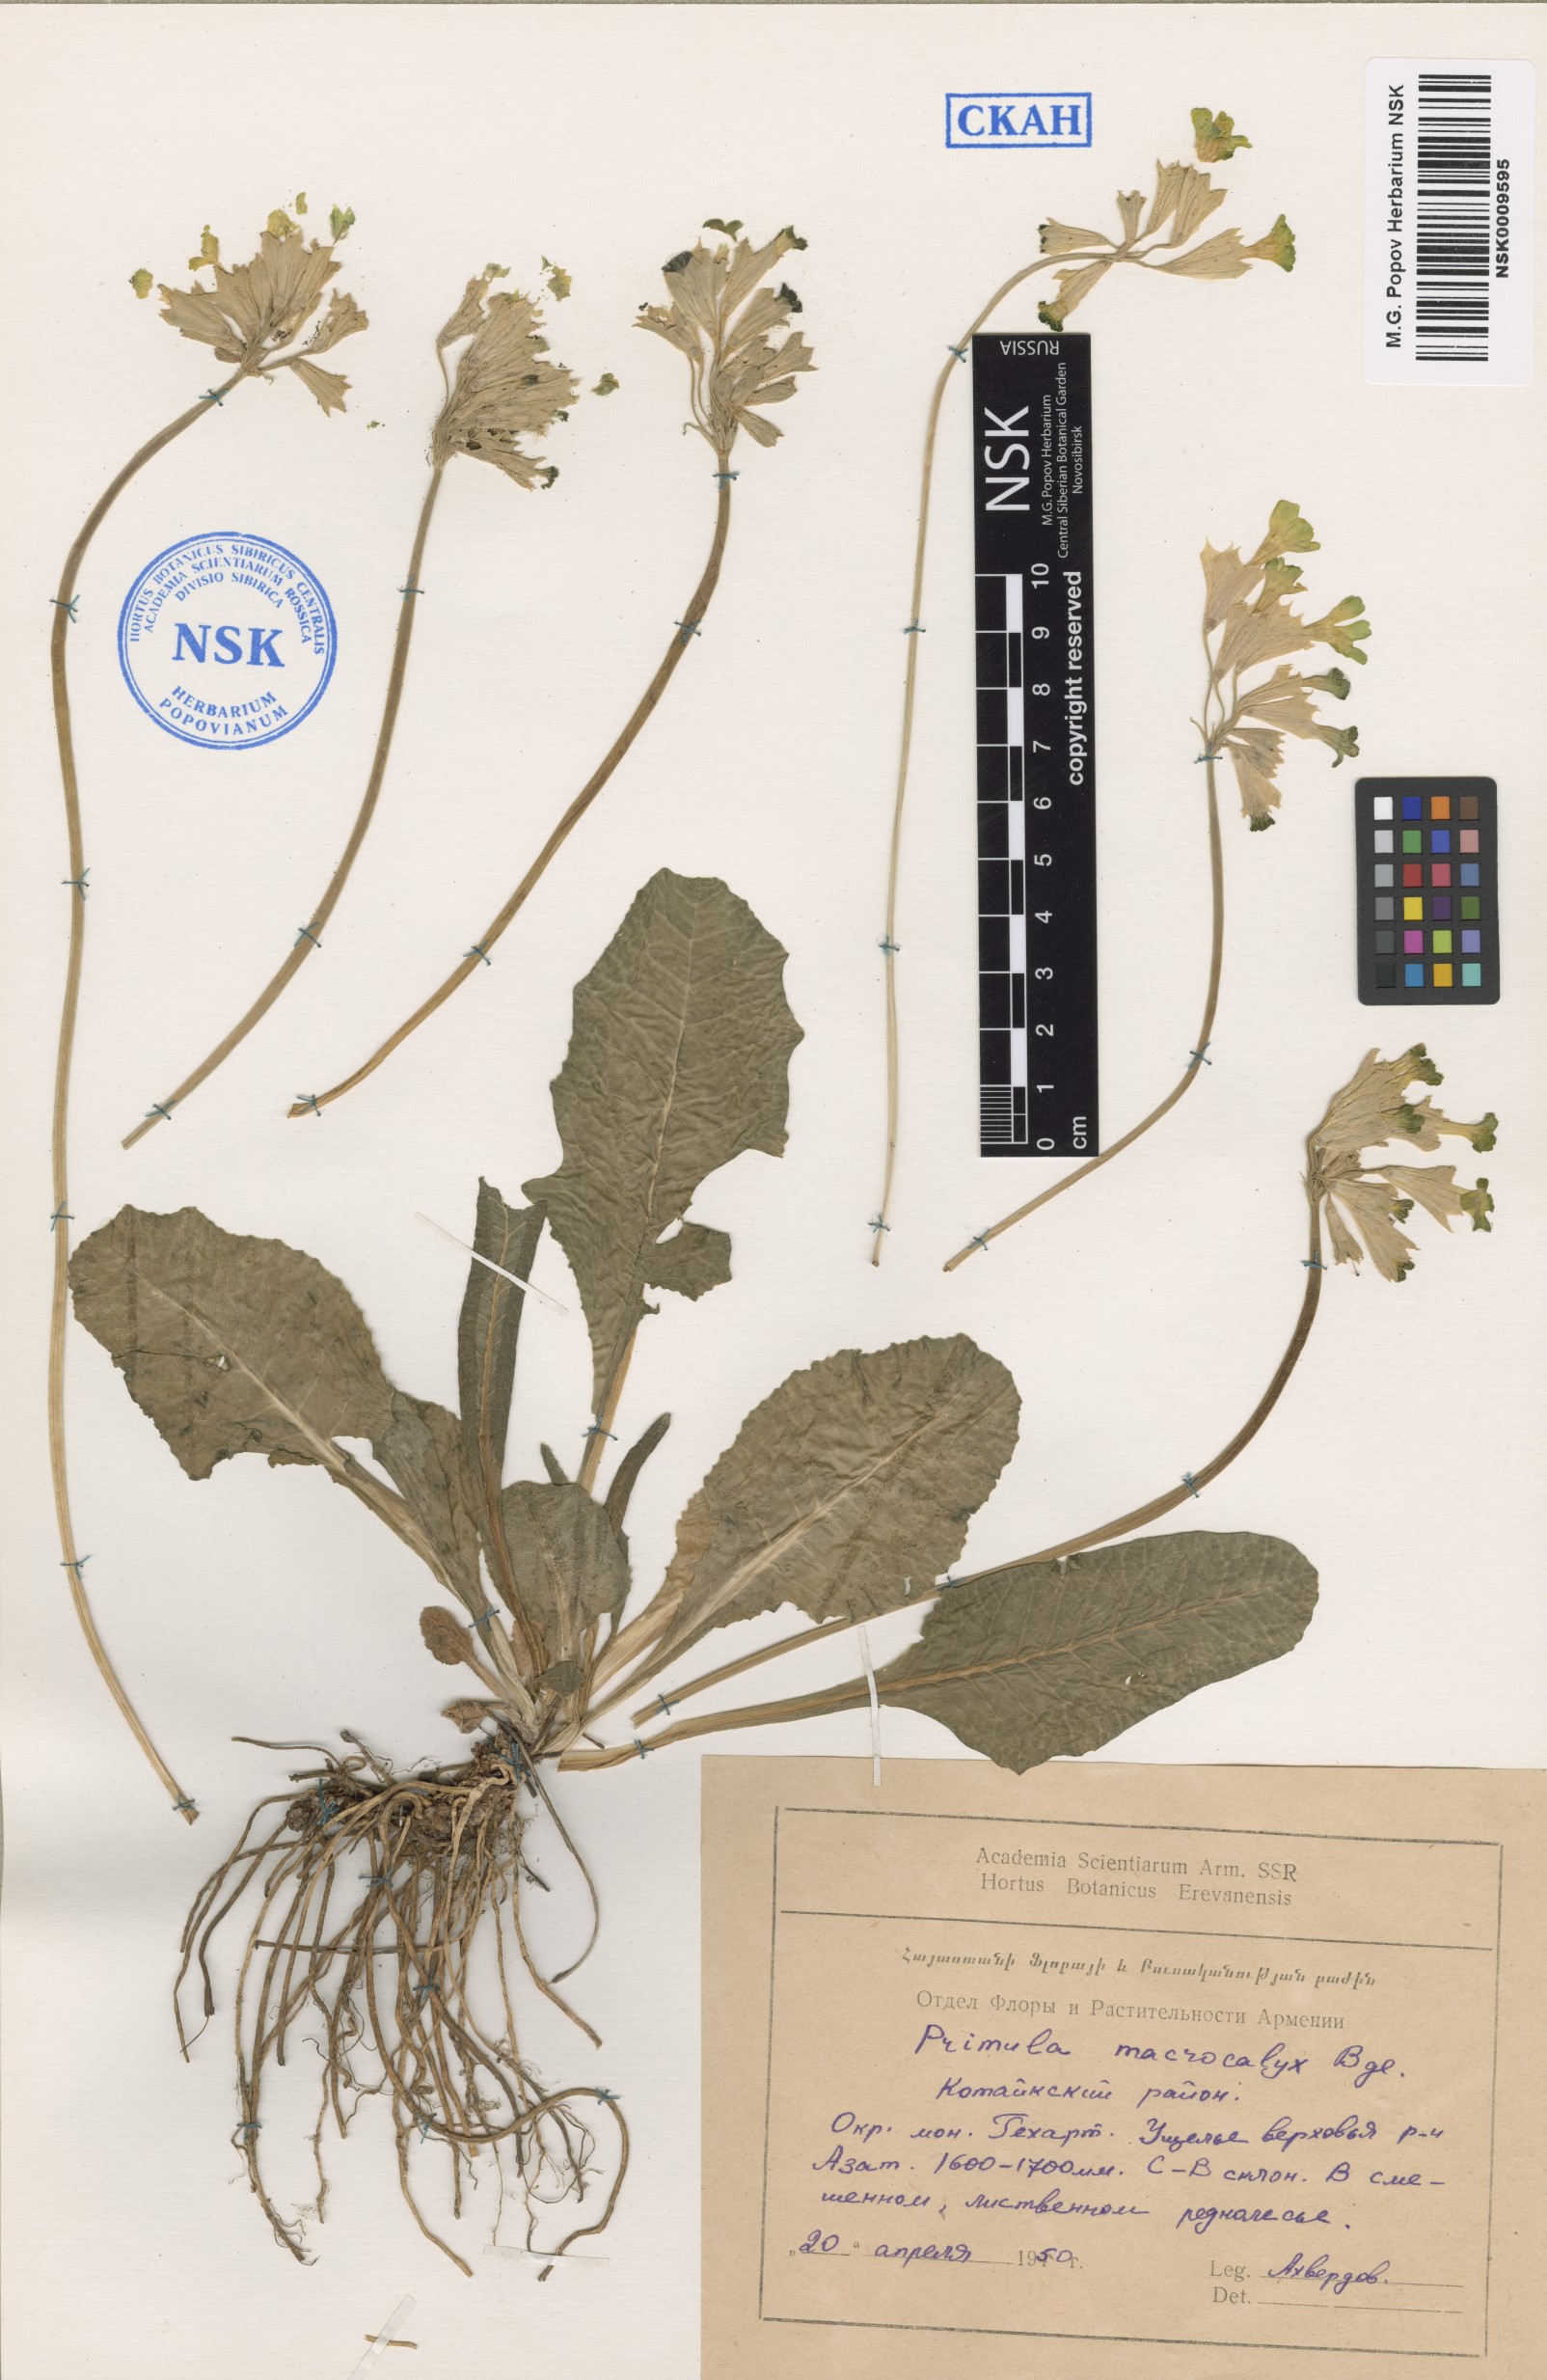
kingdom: Plantae
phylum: Tracheophyta
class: Magnoliopsida
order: Ericales
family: Primulaceae
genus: Primula
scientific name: Primula veris
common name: Cowslip
